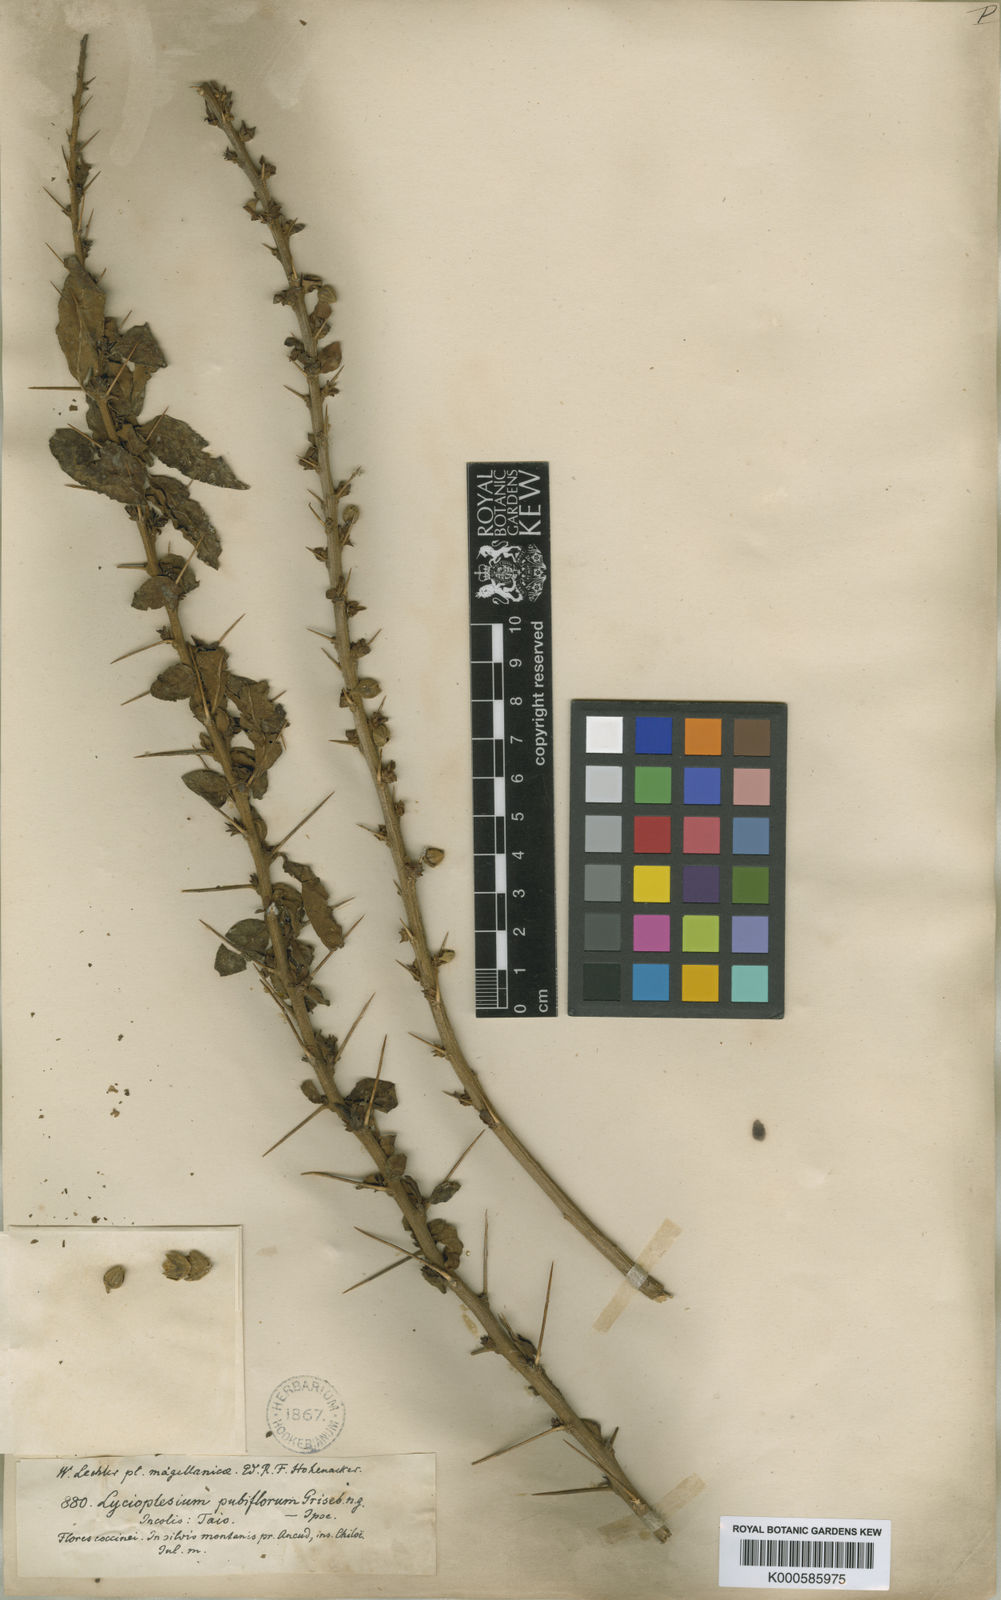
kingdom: Plantae
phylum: Tracheophyta
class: Magnoliopsida
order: Solanales
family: Solanaceae
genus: Latua
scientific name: Latua pubiflora
